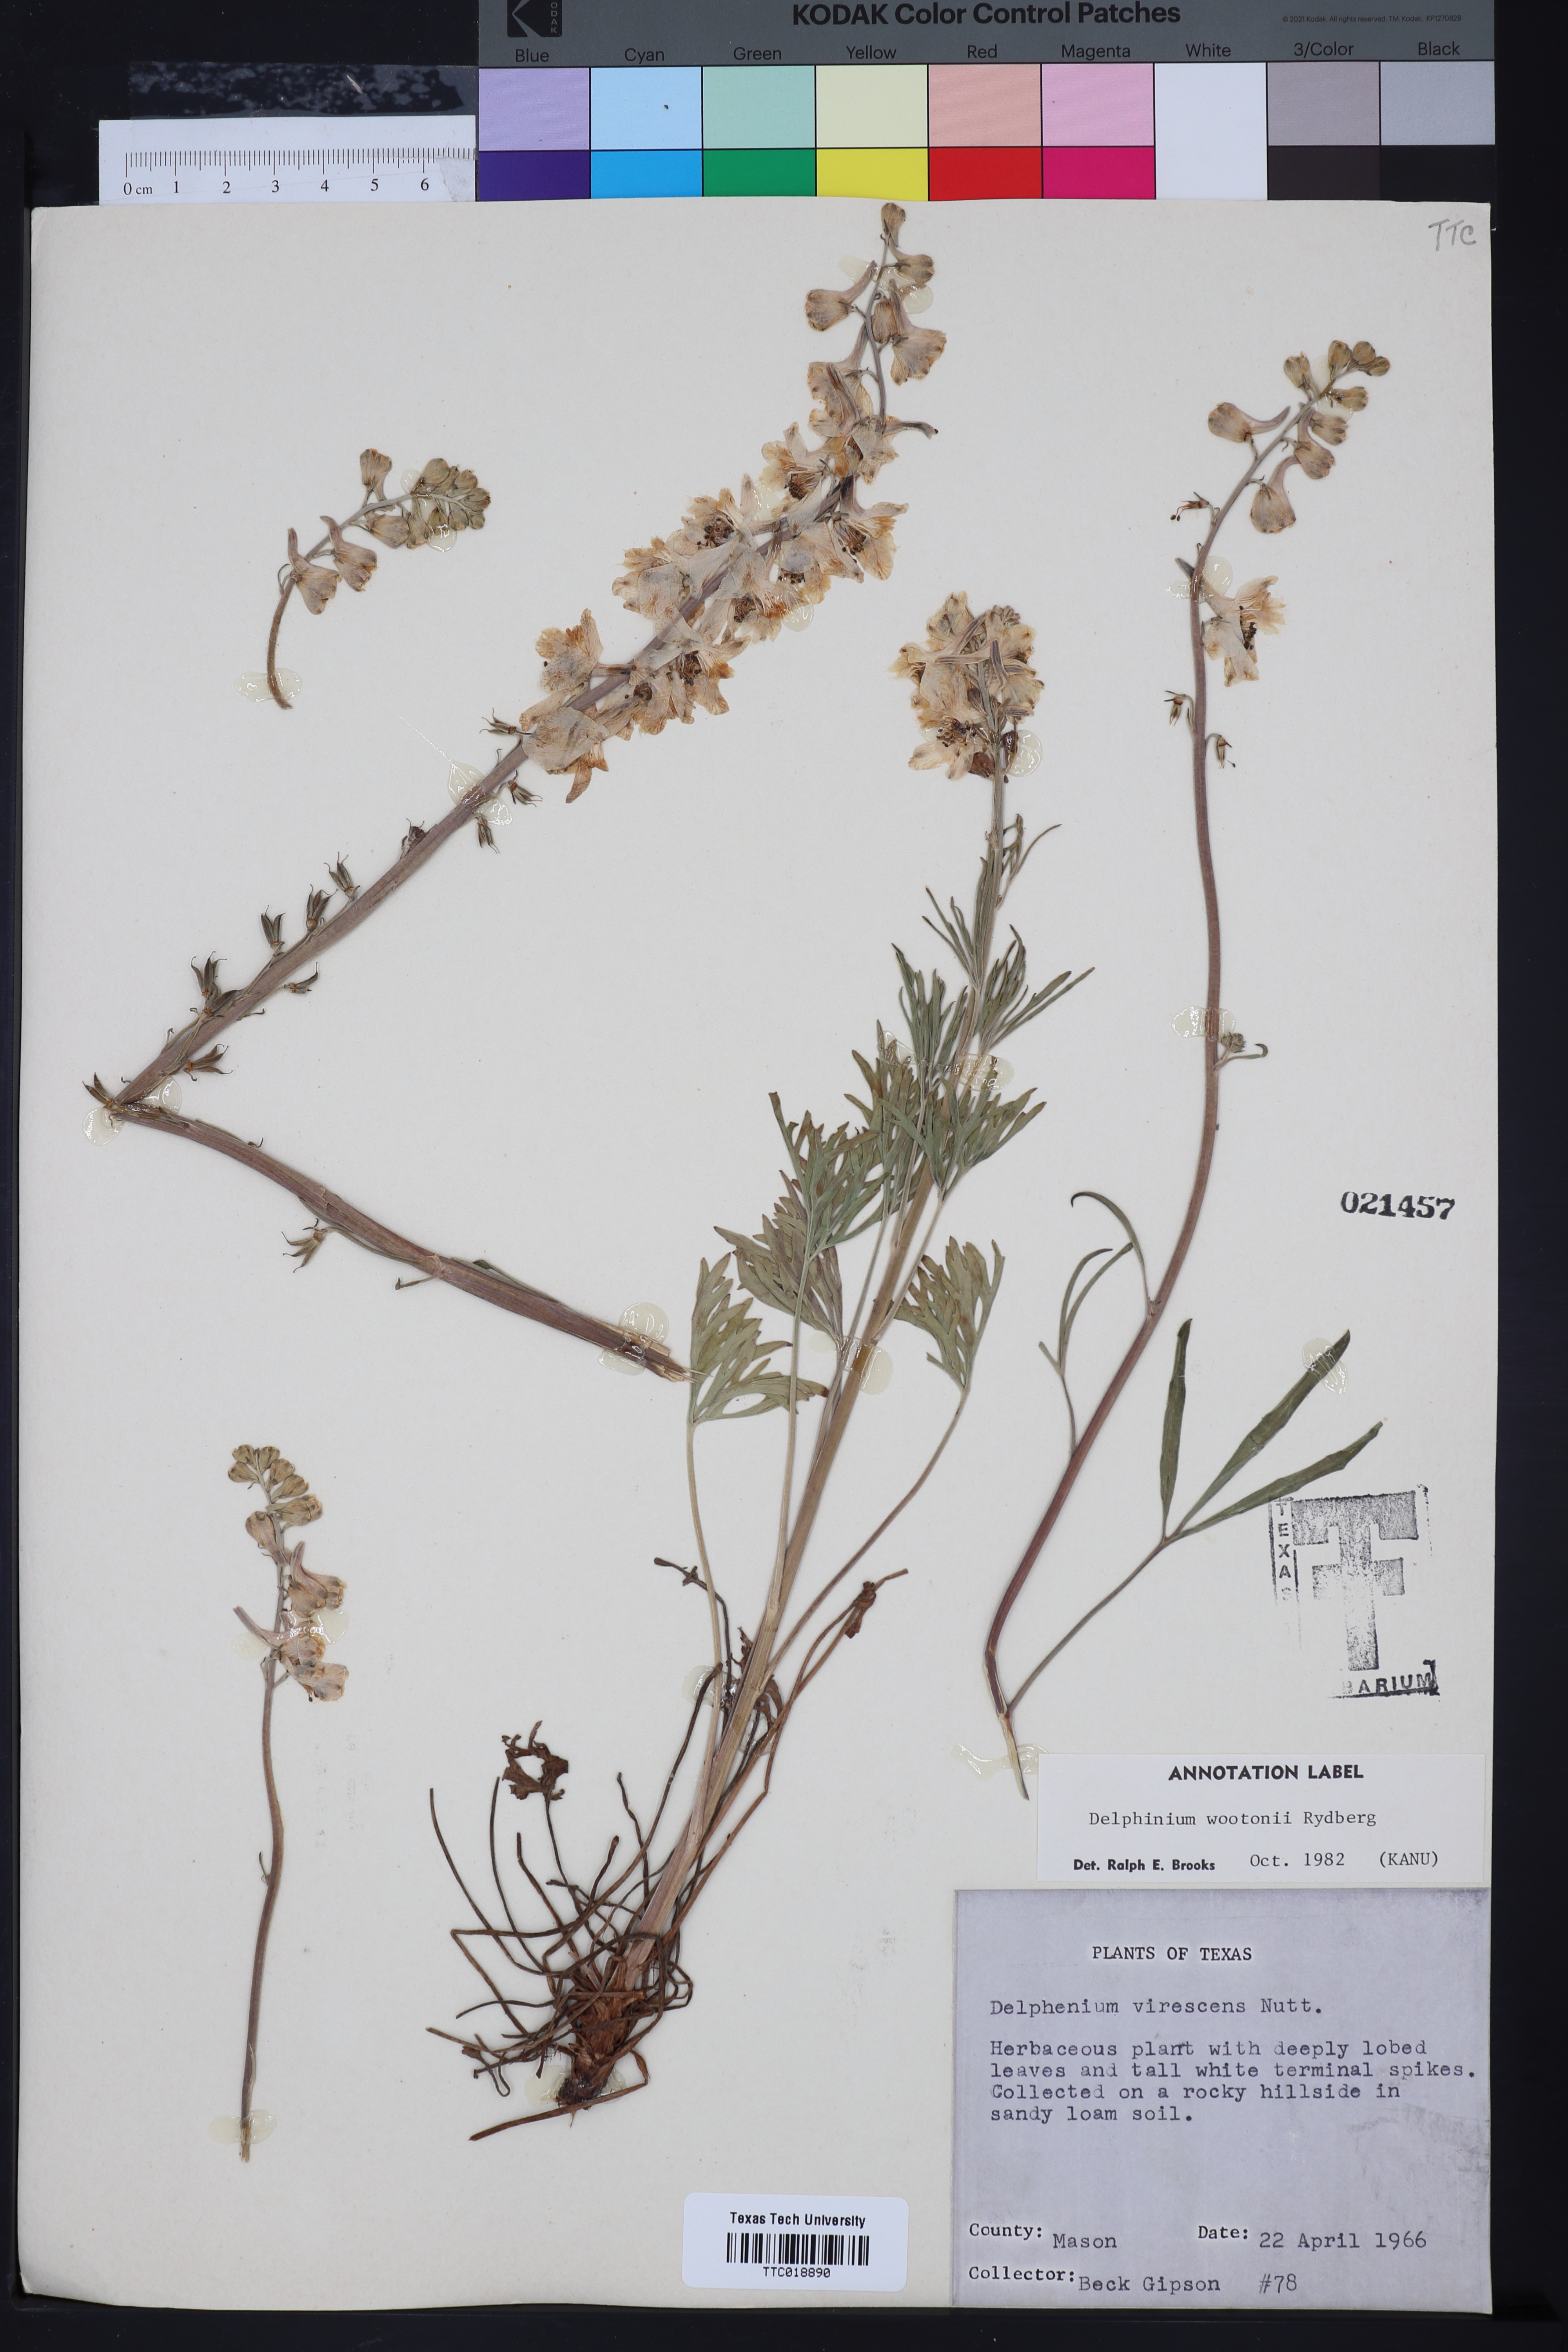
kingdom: Plantae
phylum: Tracheophyta
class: Magnoliopsida
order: Ranunculales
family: Ranunculaceae
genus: Delphinium
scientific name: Delphinium wootonii
